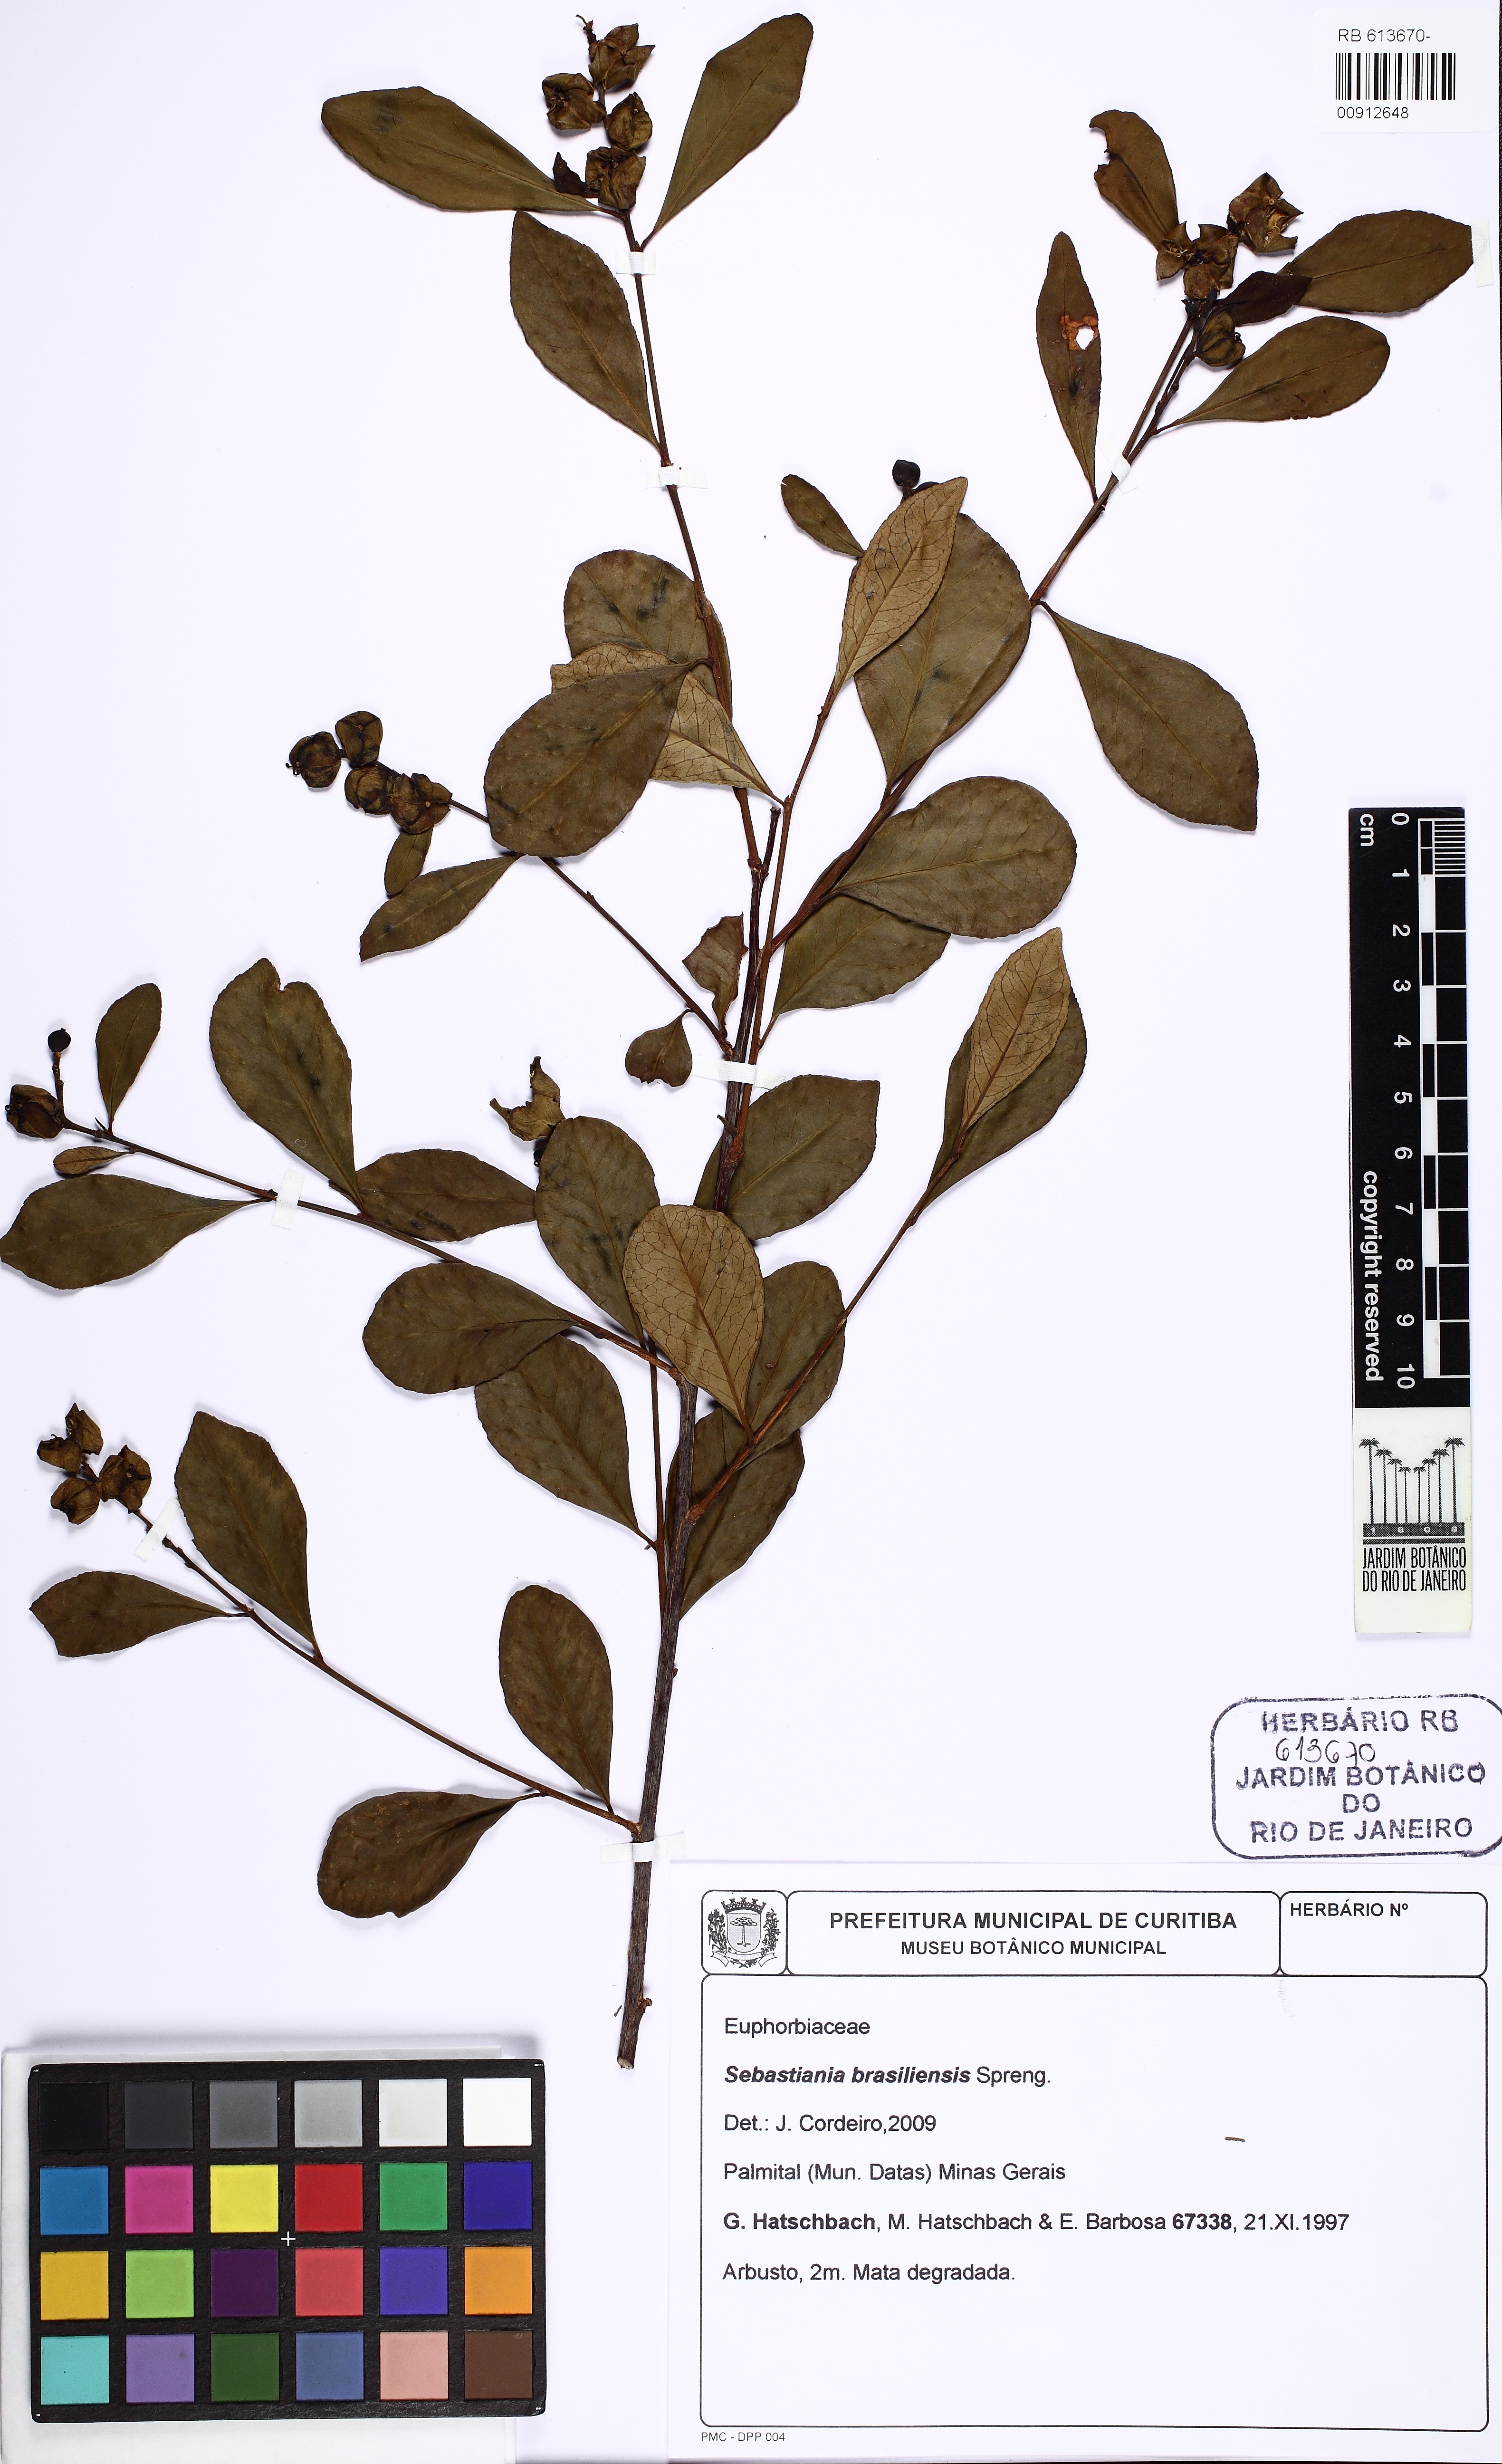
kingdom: Plantae
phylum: Tracheophyta
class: Magnoliopsida
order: Malpighiales
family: Euphorbiaceae
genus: Sebastiania
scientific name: Sebastiania brasiliensis
